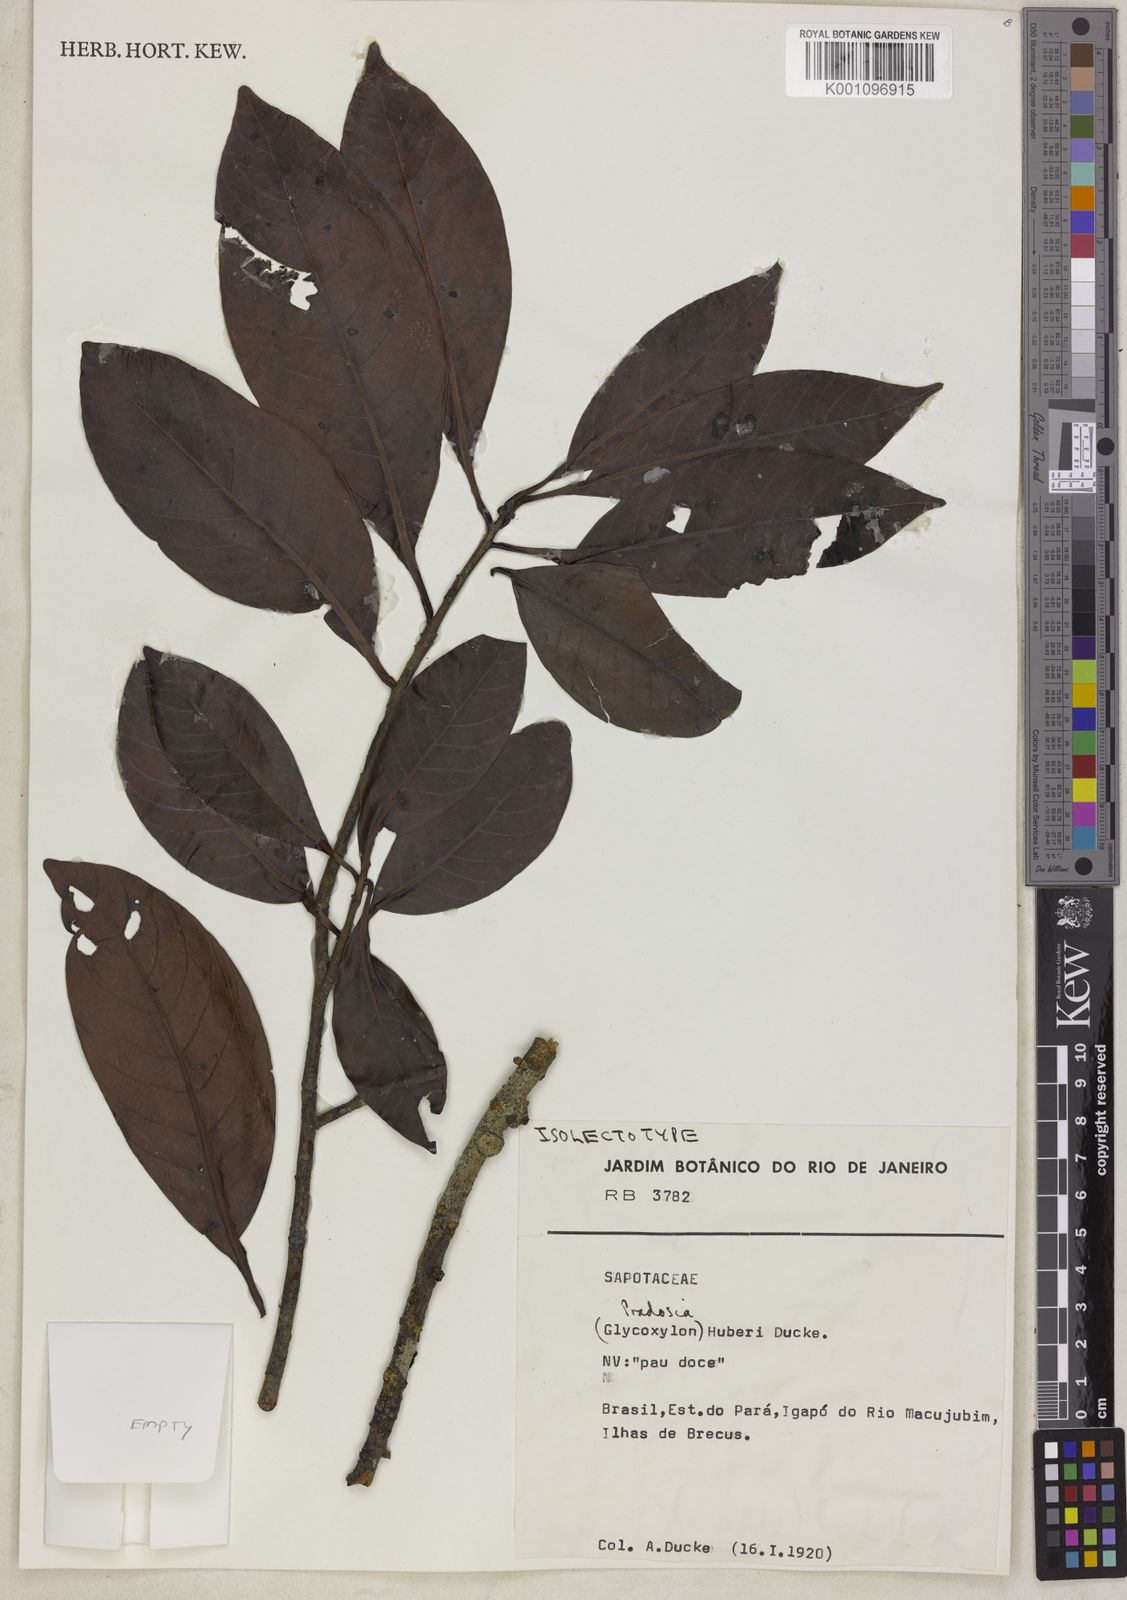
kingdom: Plantae
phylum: Tracheophyta
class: Magnoliopsida
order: Ericales
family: Sapotaceae
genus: Pradosia
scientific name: Pradosia huberi
